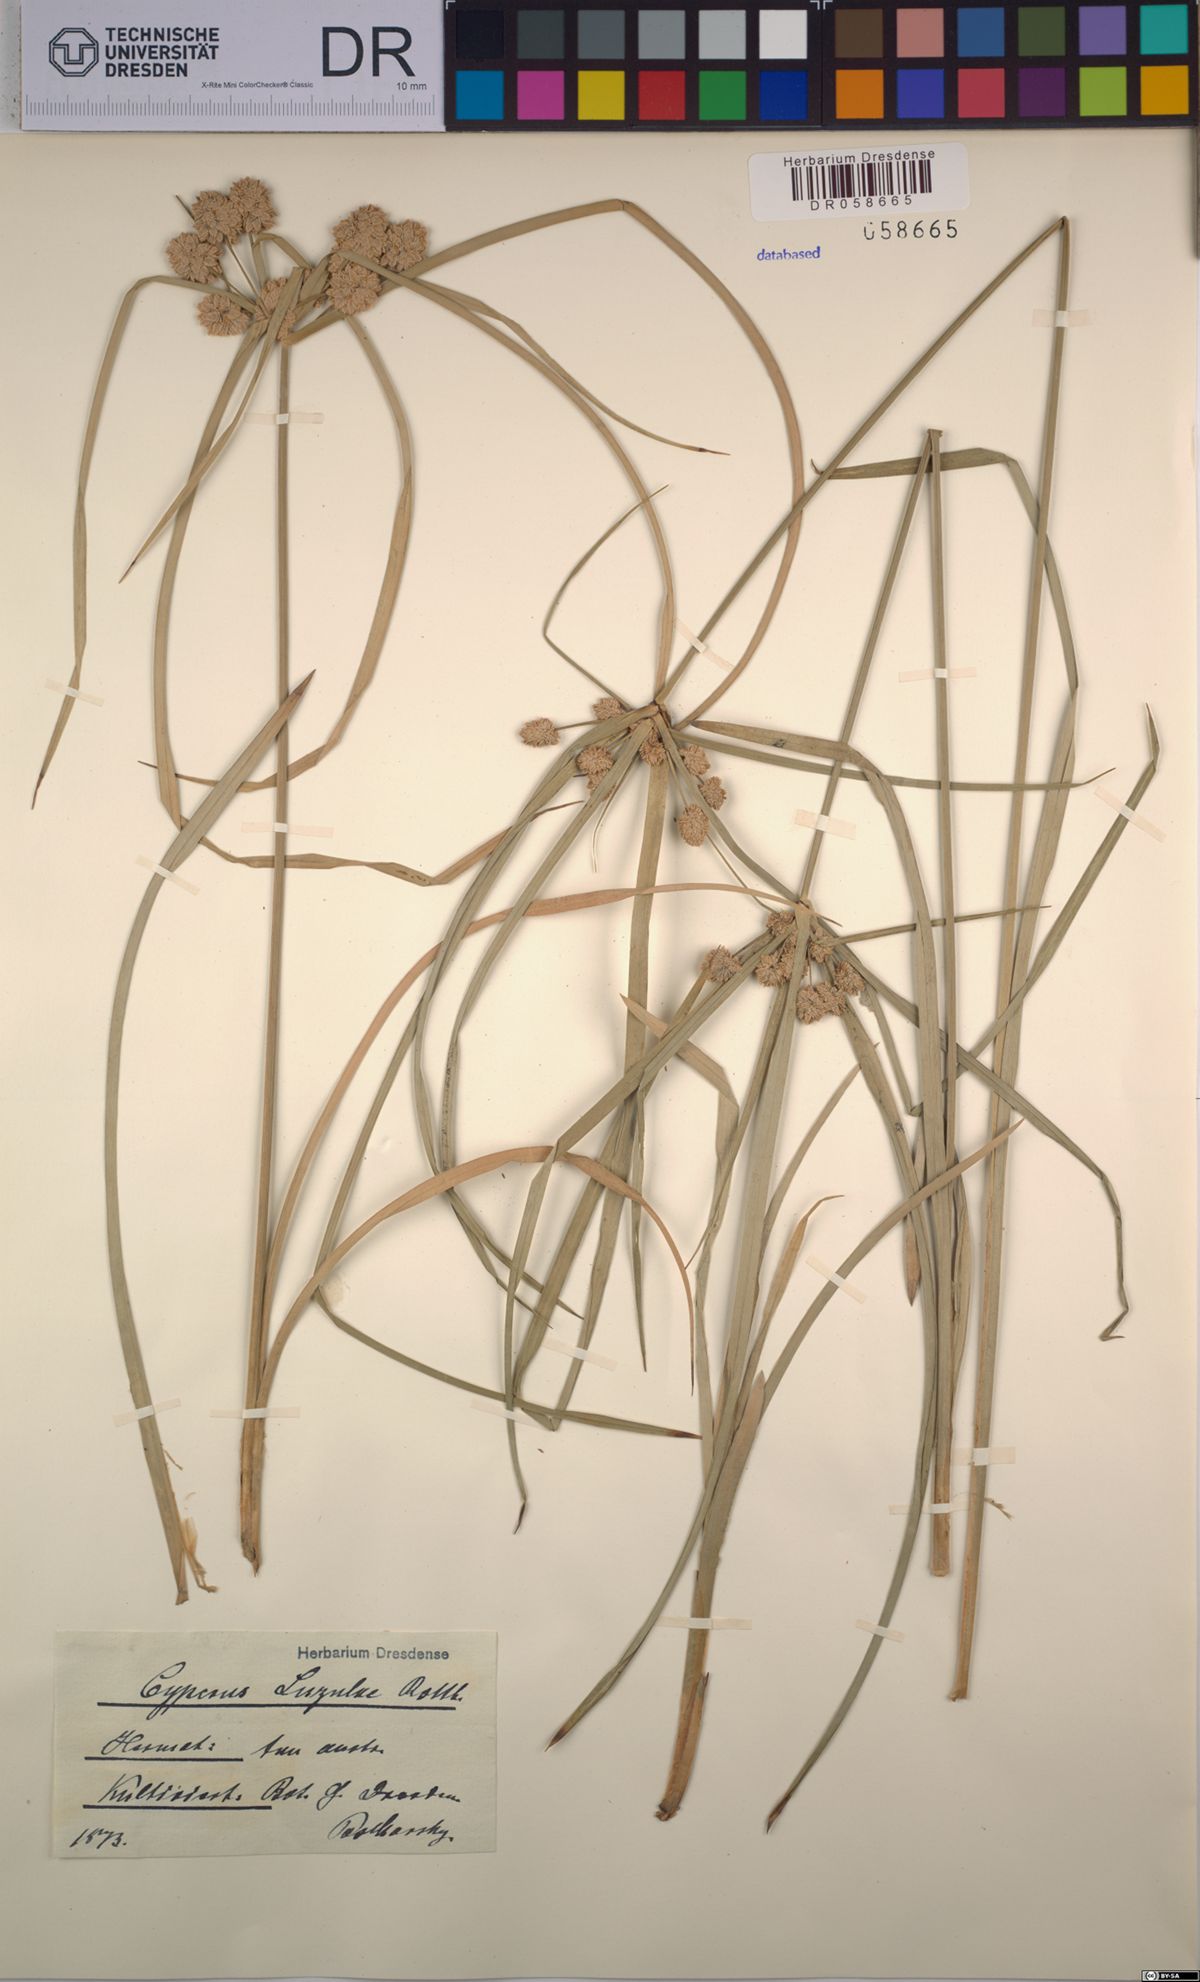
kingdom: Plantae
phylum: Tracheophyta
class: Liliopsida
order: Poales
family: Cyperaceae
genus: Cyperus
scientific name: Cyperus luzulae
